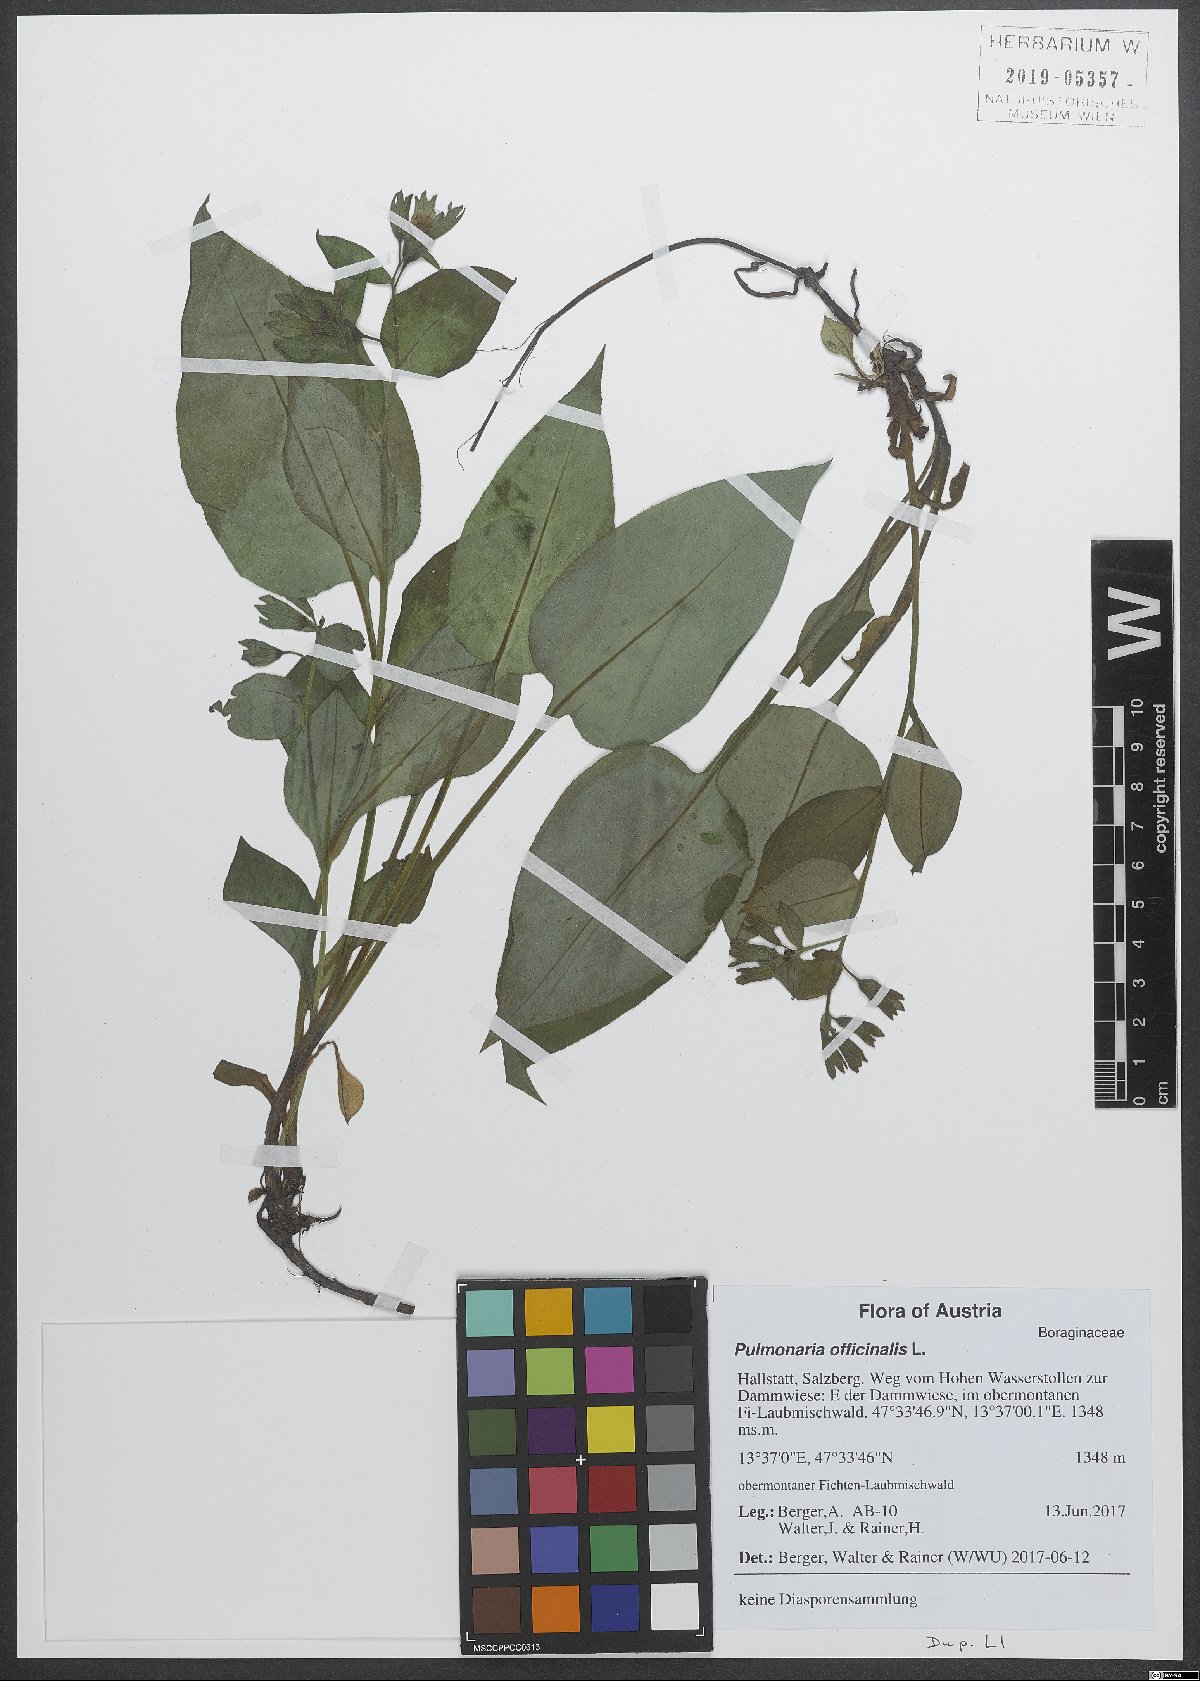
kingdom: Plantae
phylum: Tracheophyta
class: Magnoliopsida
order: Boraginales
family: Boraginaceae
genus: Pulmonaria
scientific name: Pulmonaria officinalis
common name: Lungwort
